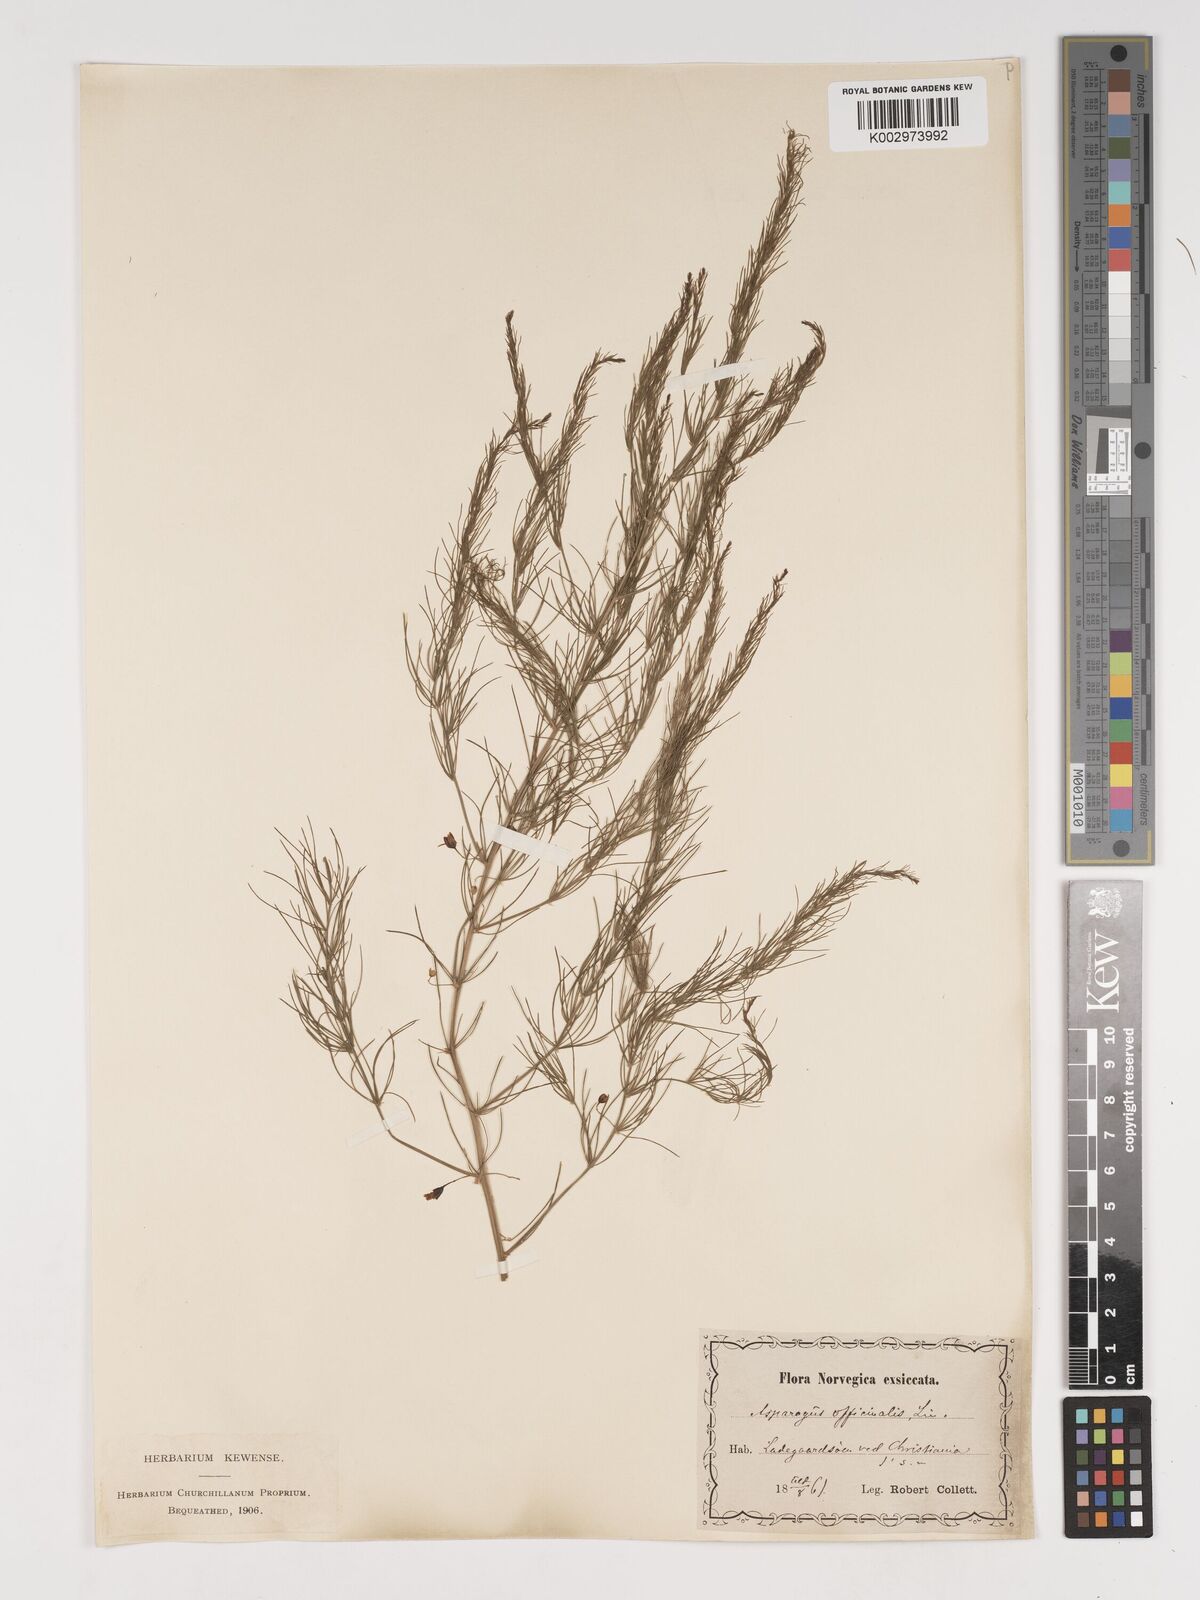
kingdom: Plantae
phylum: Tracheophyta
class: Liliopsida
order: Asparagales
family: Asparagaceae
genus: Asparagus
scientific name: Asparagus officinalis
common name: Garden asparagus
